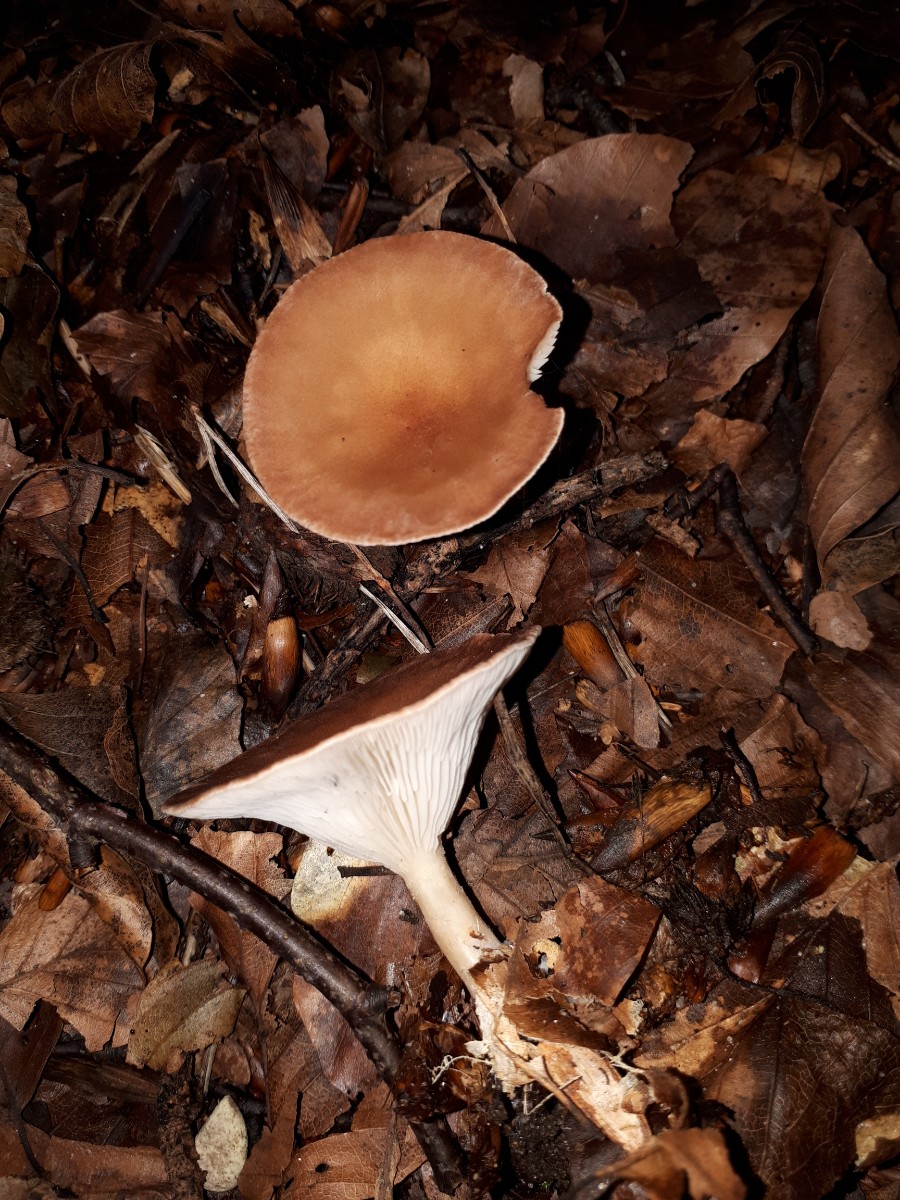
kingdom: Fungi
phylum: Basidiomycota
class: Agaricomycetes
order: Agaricales
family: Tricholomataceae
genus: Infundibulicybe
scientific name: Infundibulicybe gibba
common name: almindelig tragthat
